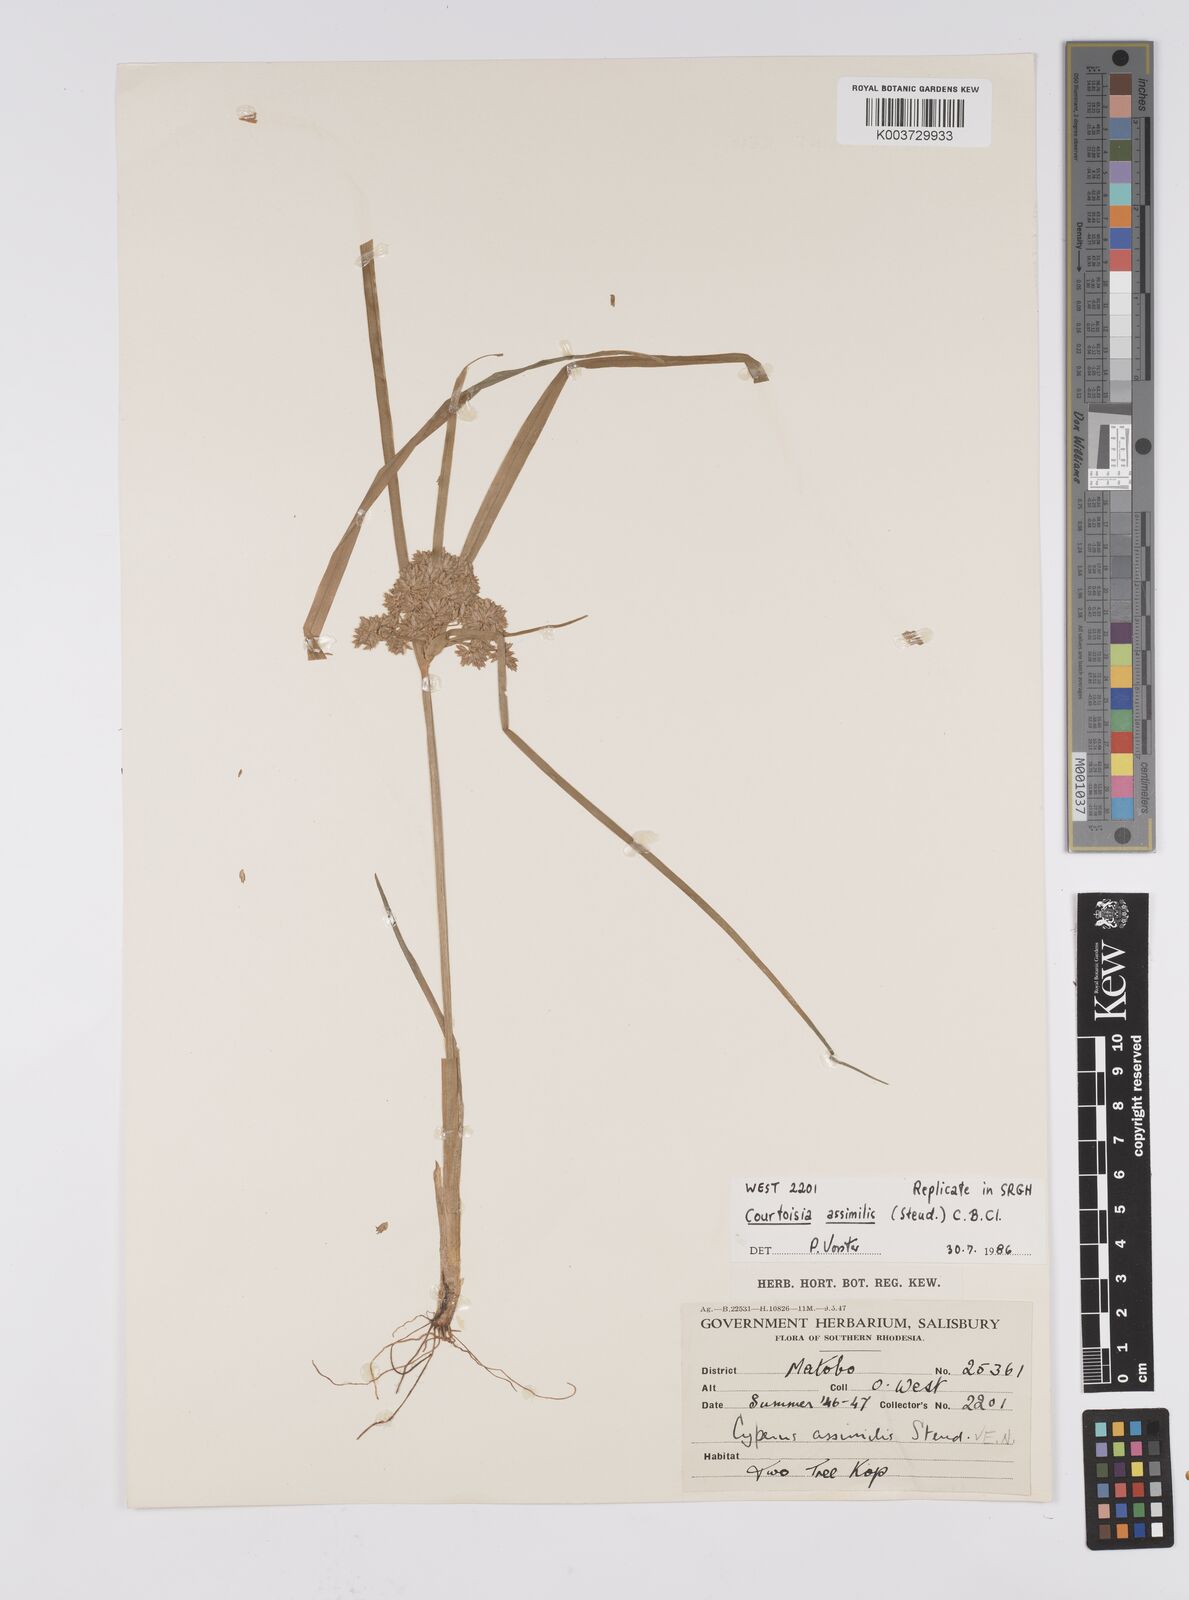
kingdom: Plantae
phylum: Tracheophyta
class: Liliopsida
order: Poales
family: Cyperaceae
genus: Cyperus
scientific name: Cyperus assimilis
